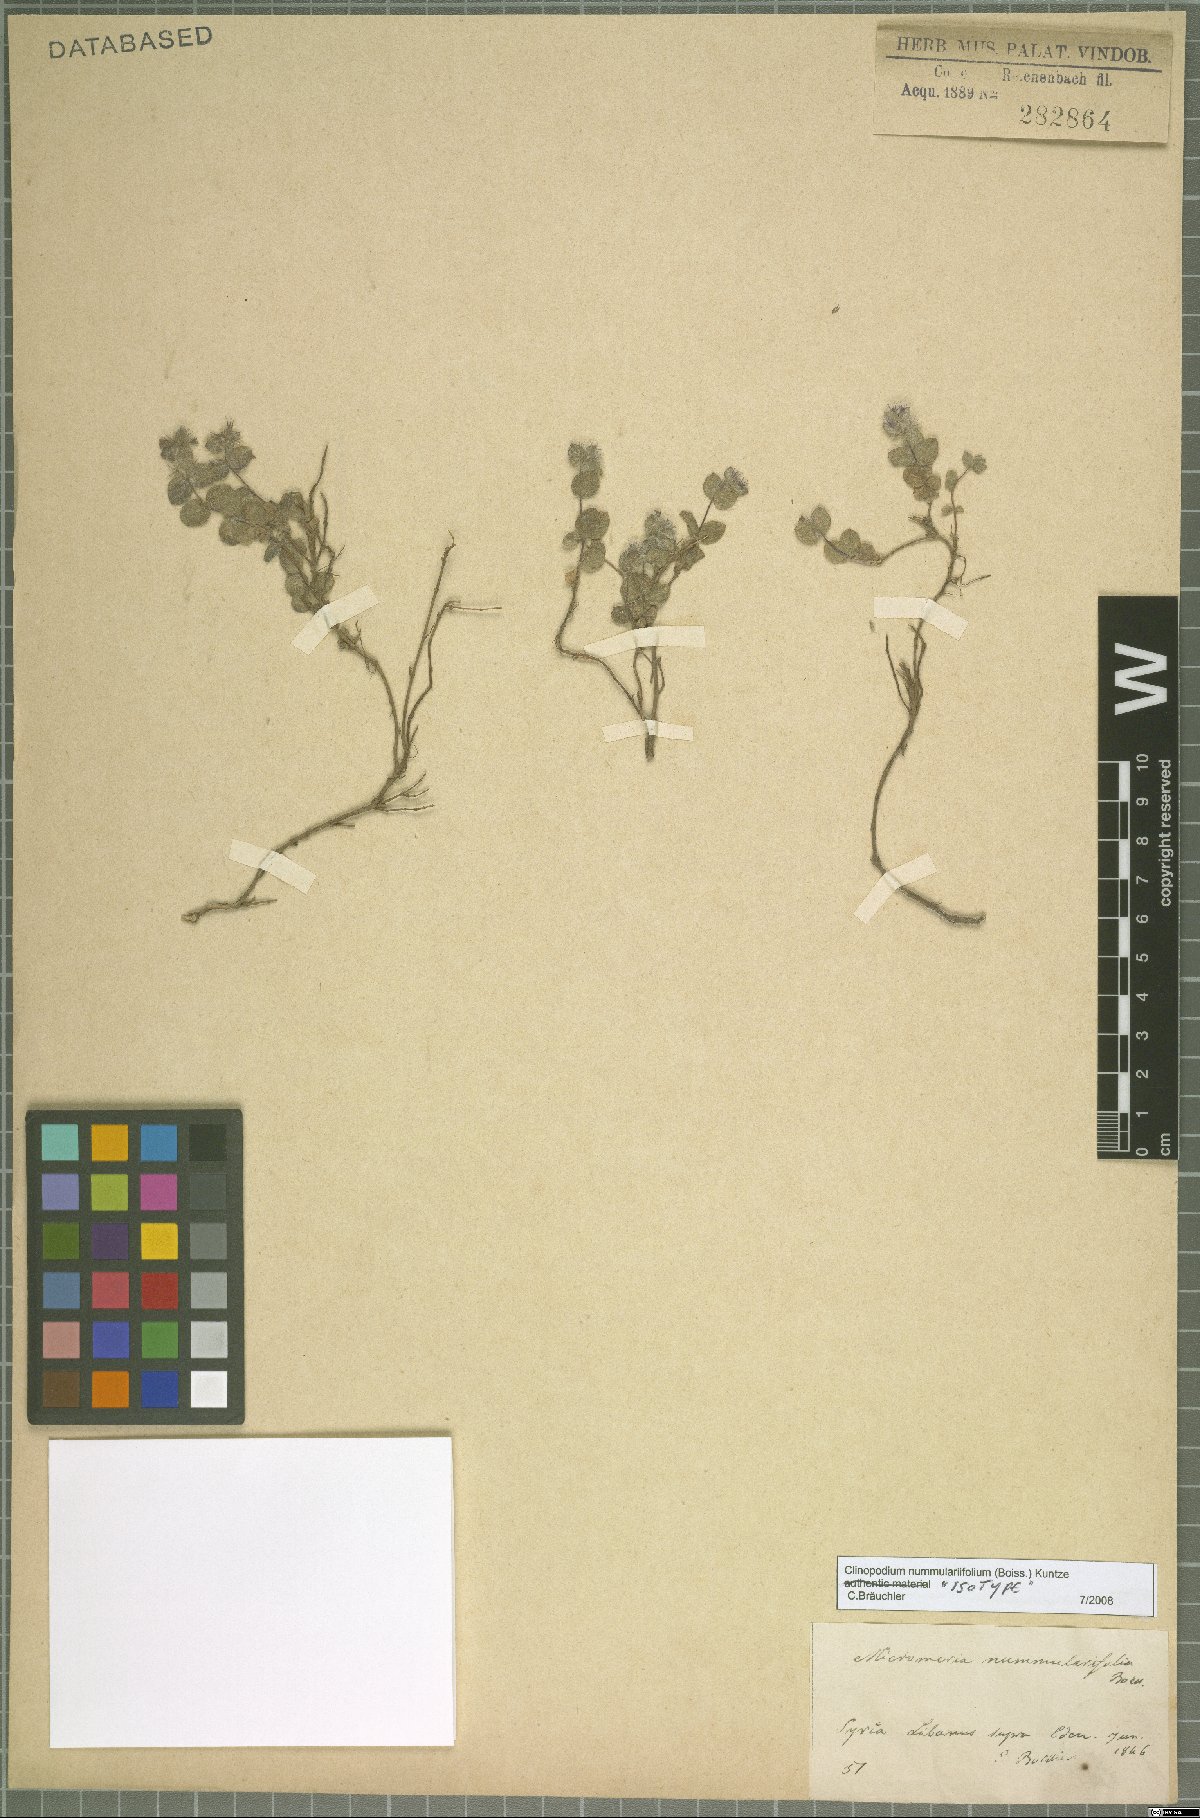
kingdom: Plantae
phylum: Tracheophyta
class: Magnoliopsida
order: Lamiales
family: Lamiaceae
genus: Clinopodium
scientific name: Clinopodium nummulariifolium
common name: Nummular-leaved savory
